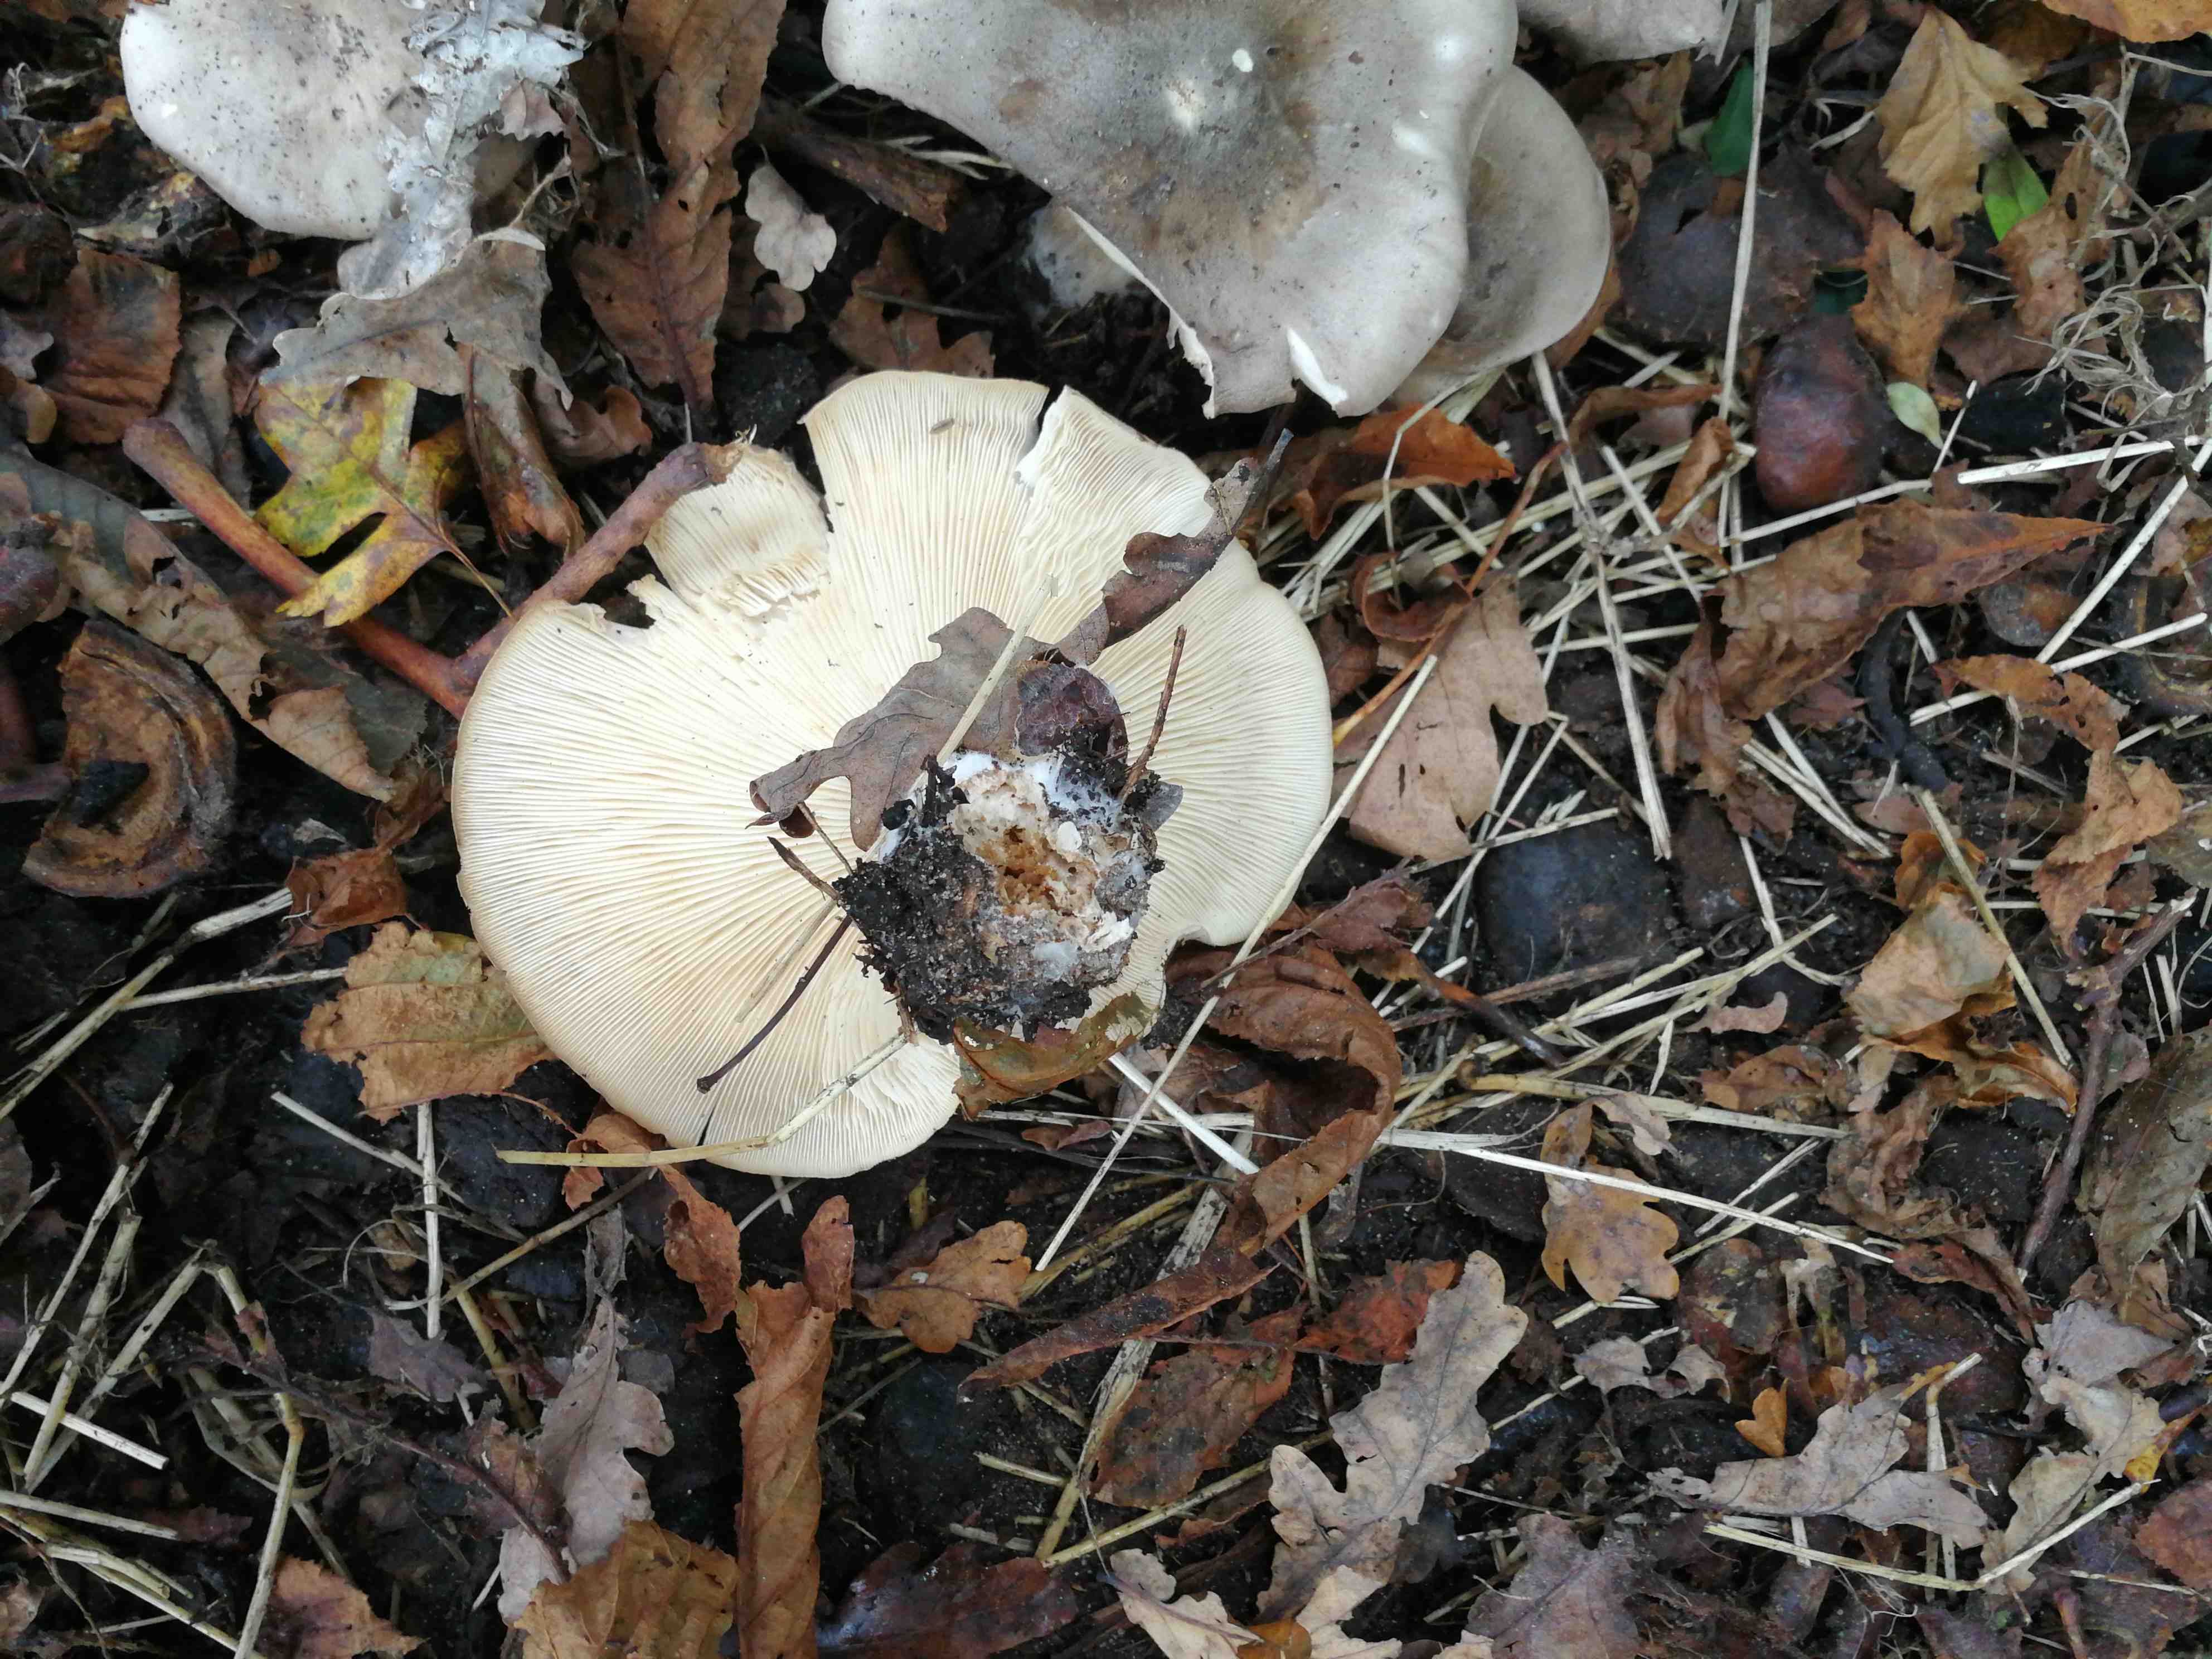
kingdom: Fungi
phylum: Basidiomycota
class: Agaricomycetes
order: Agaricales
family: Tricholomataceae
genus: Clitocybe
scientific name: Clitocybe nebularis
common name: tåge-tragthat
